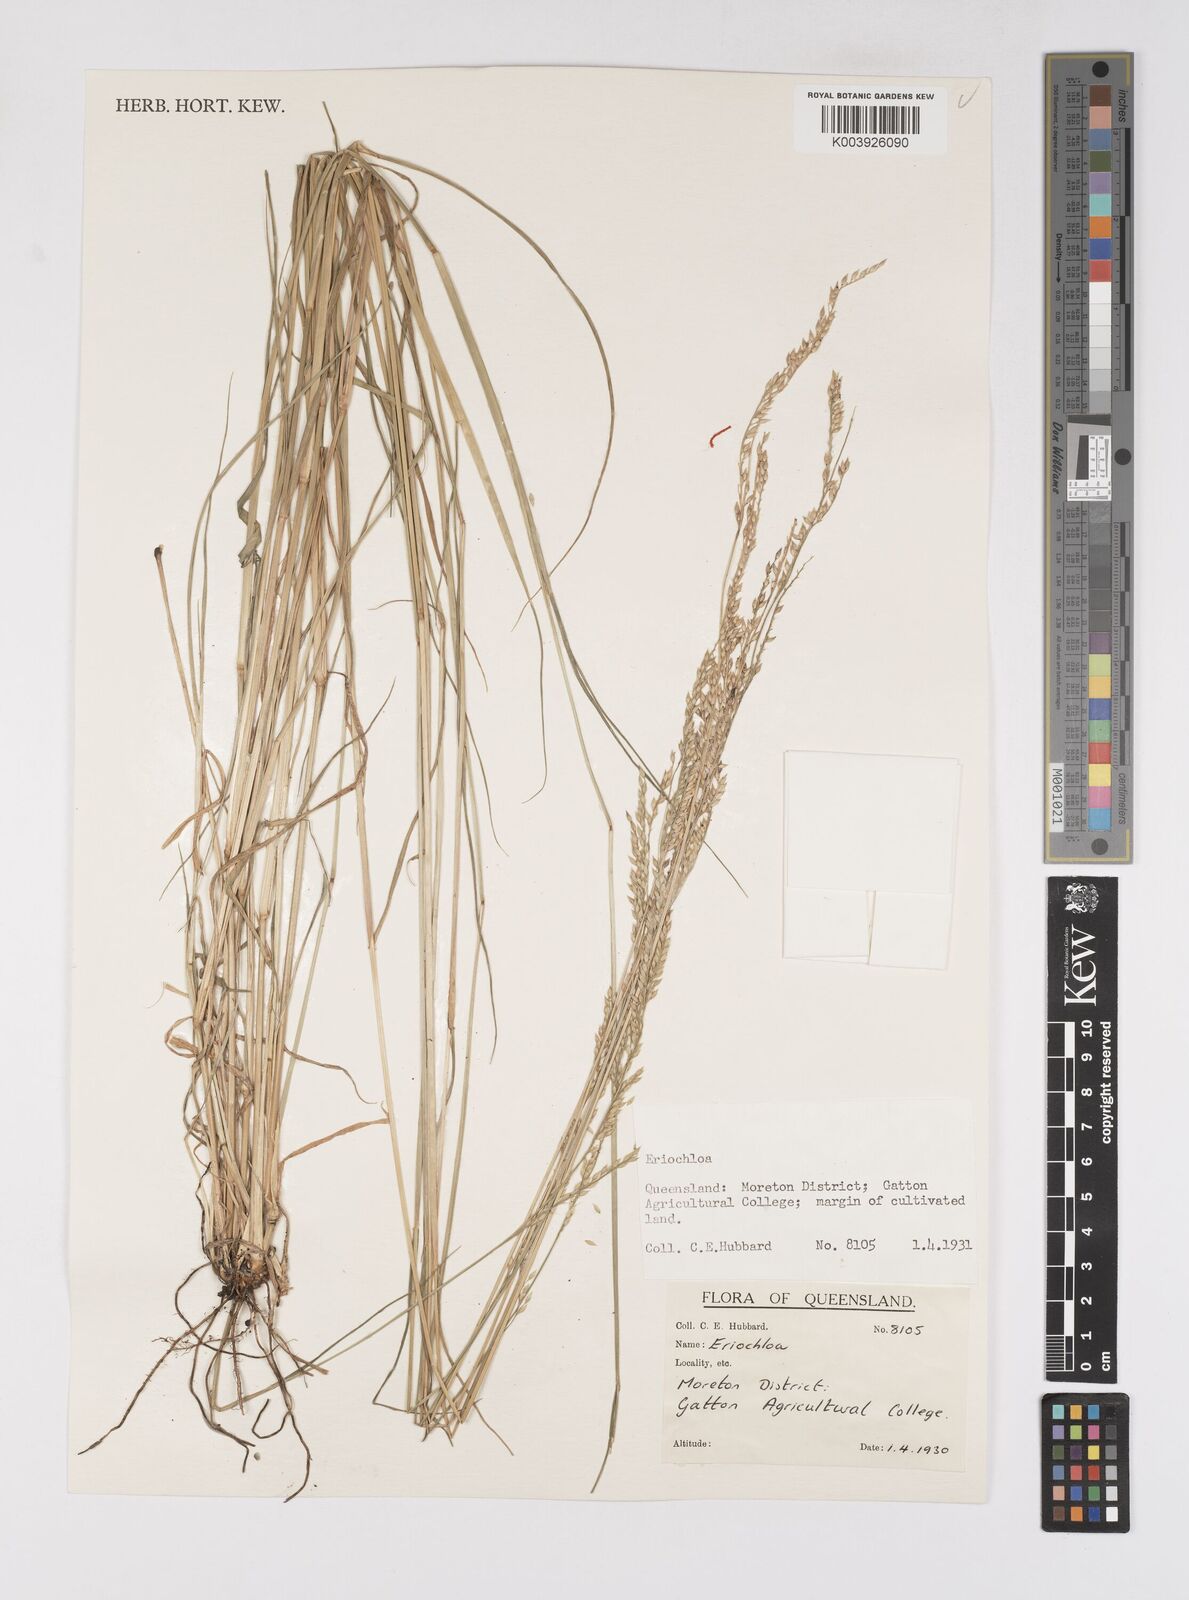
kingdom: Plantae
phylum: Tracheophyta
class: Liliopsida
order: Poales
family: Poaceae
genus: Eriochloa
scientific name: Eriochloa
